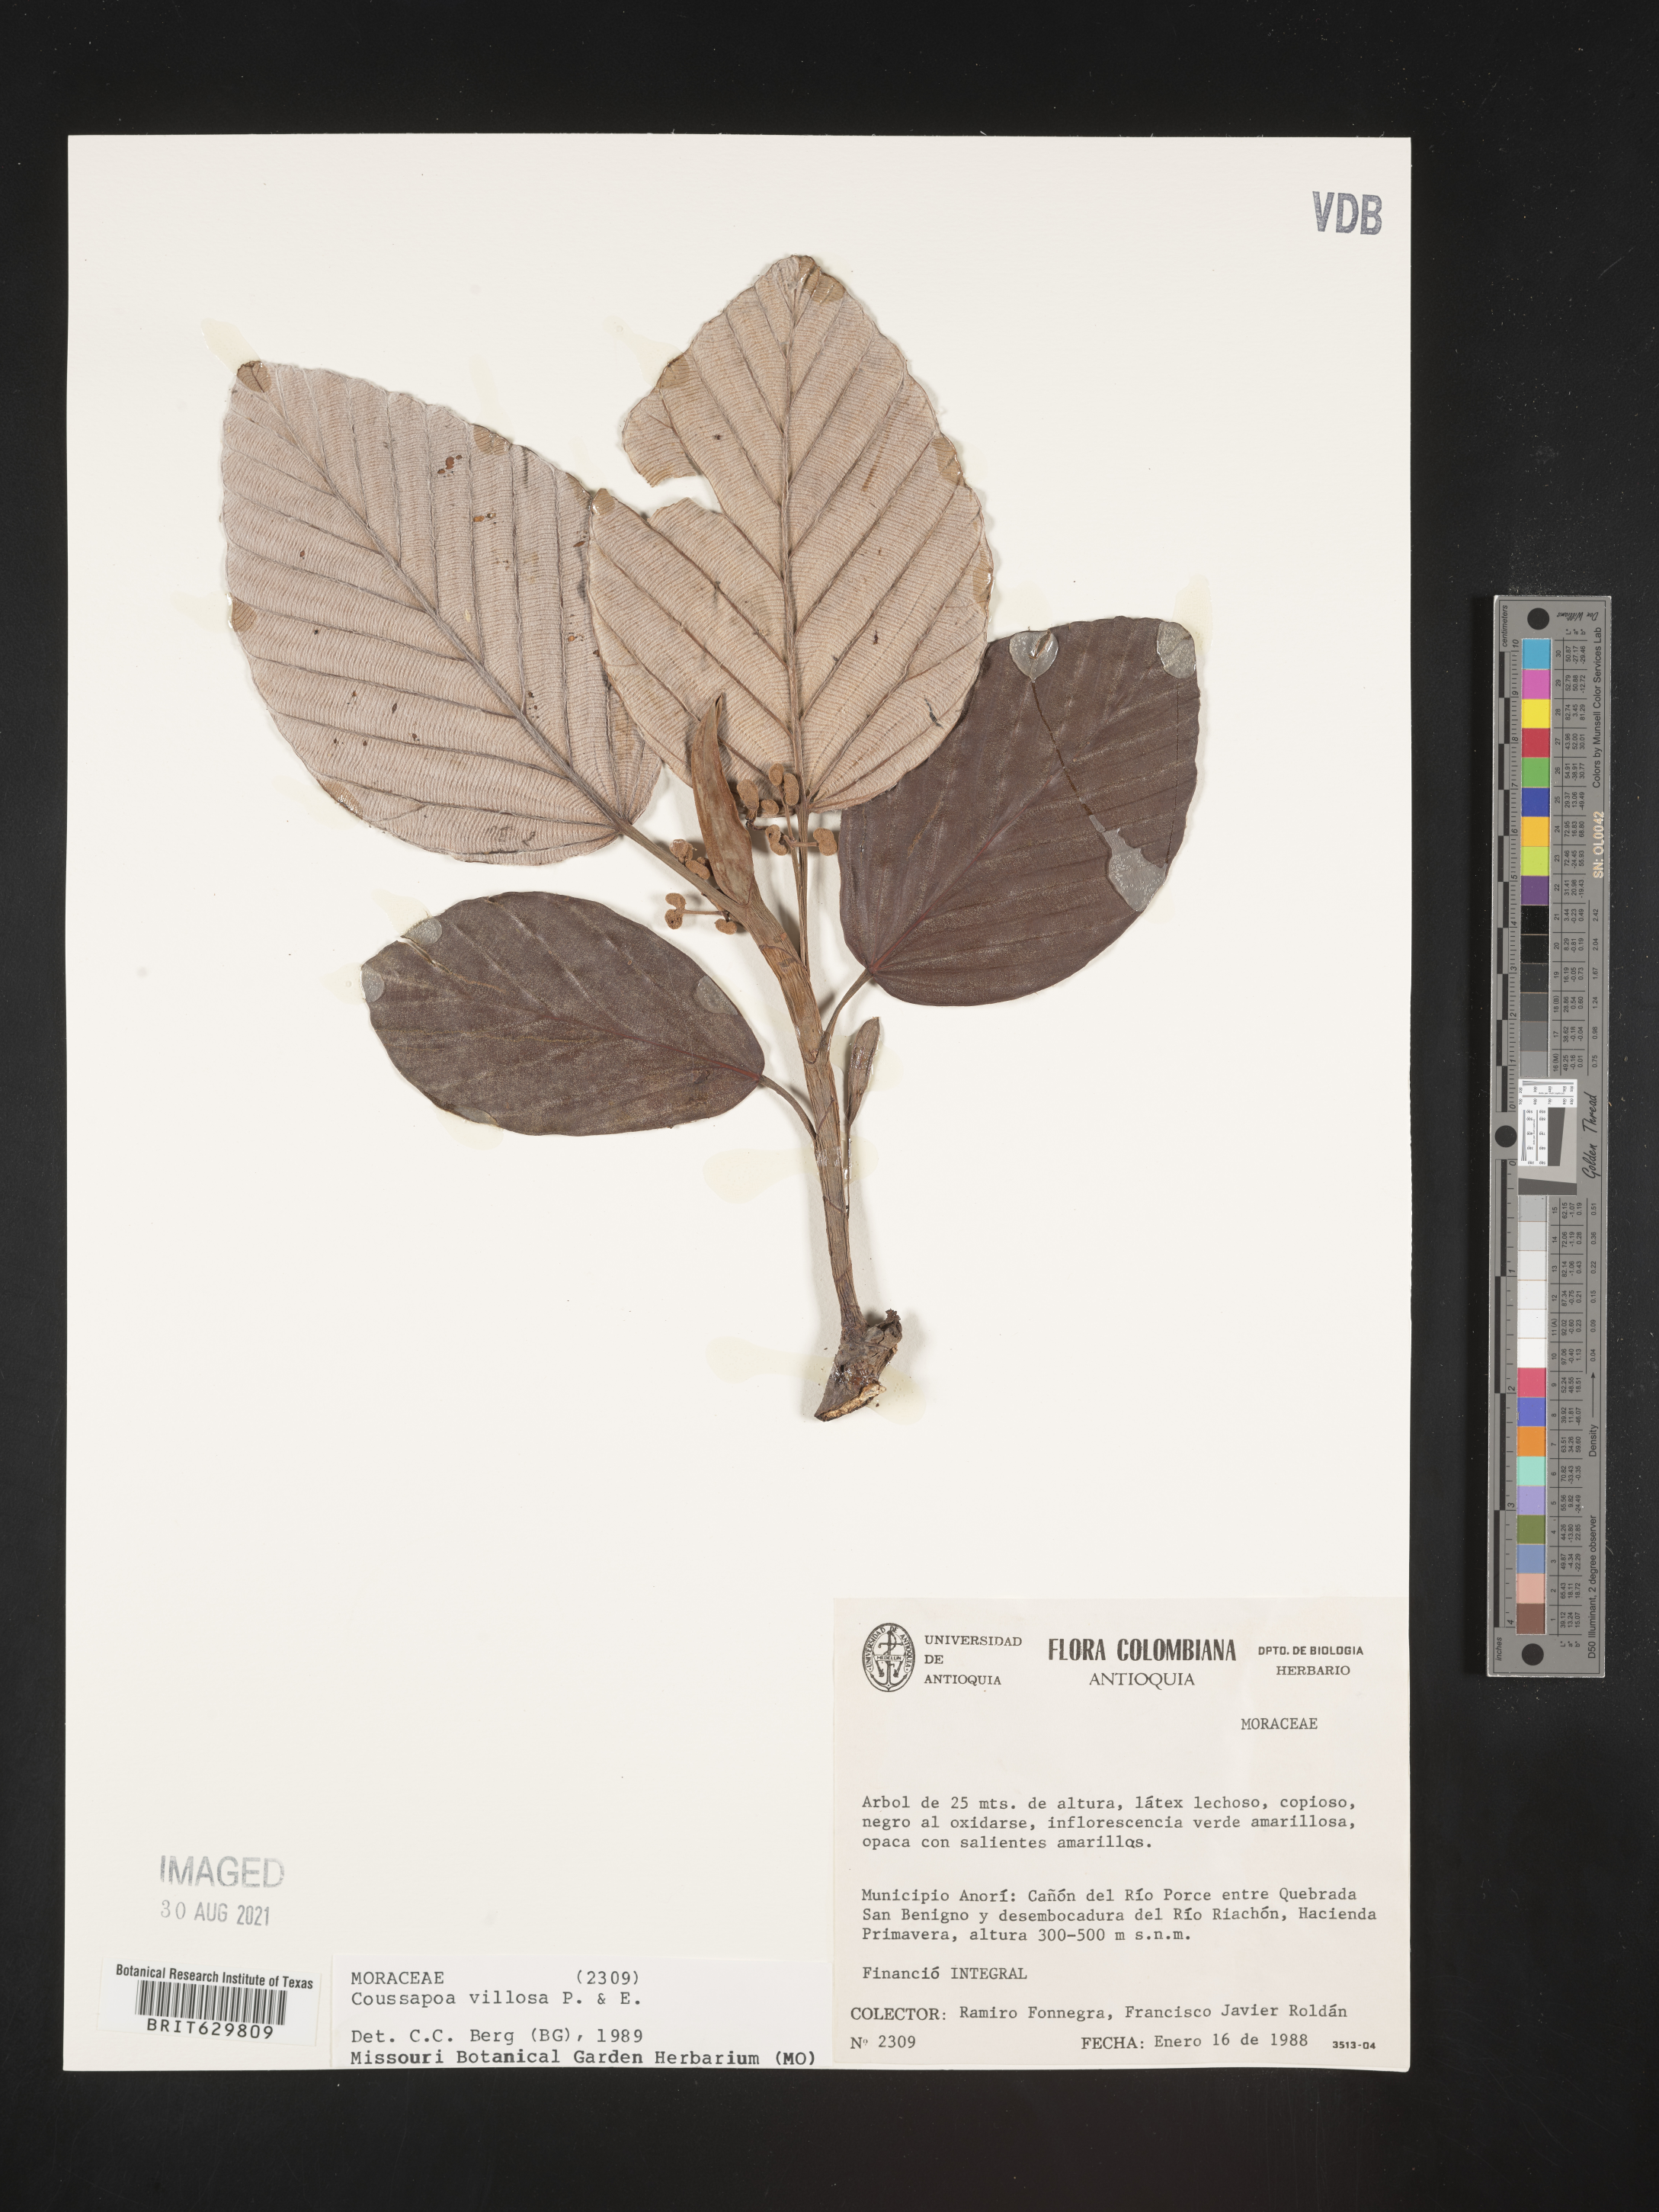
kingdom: Plantae
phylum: Tracheophyta
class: Magnoliopsida
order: Rosales
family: Urticaceae
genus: Coussapoa
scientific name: Coussapoa
